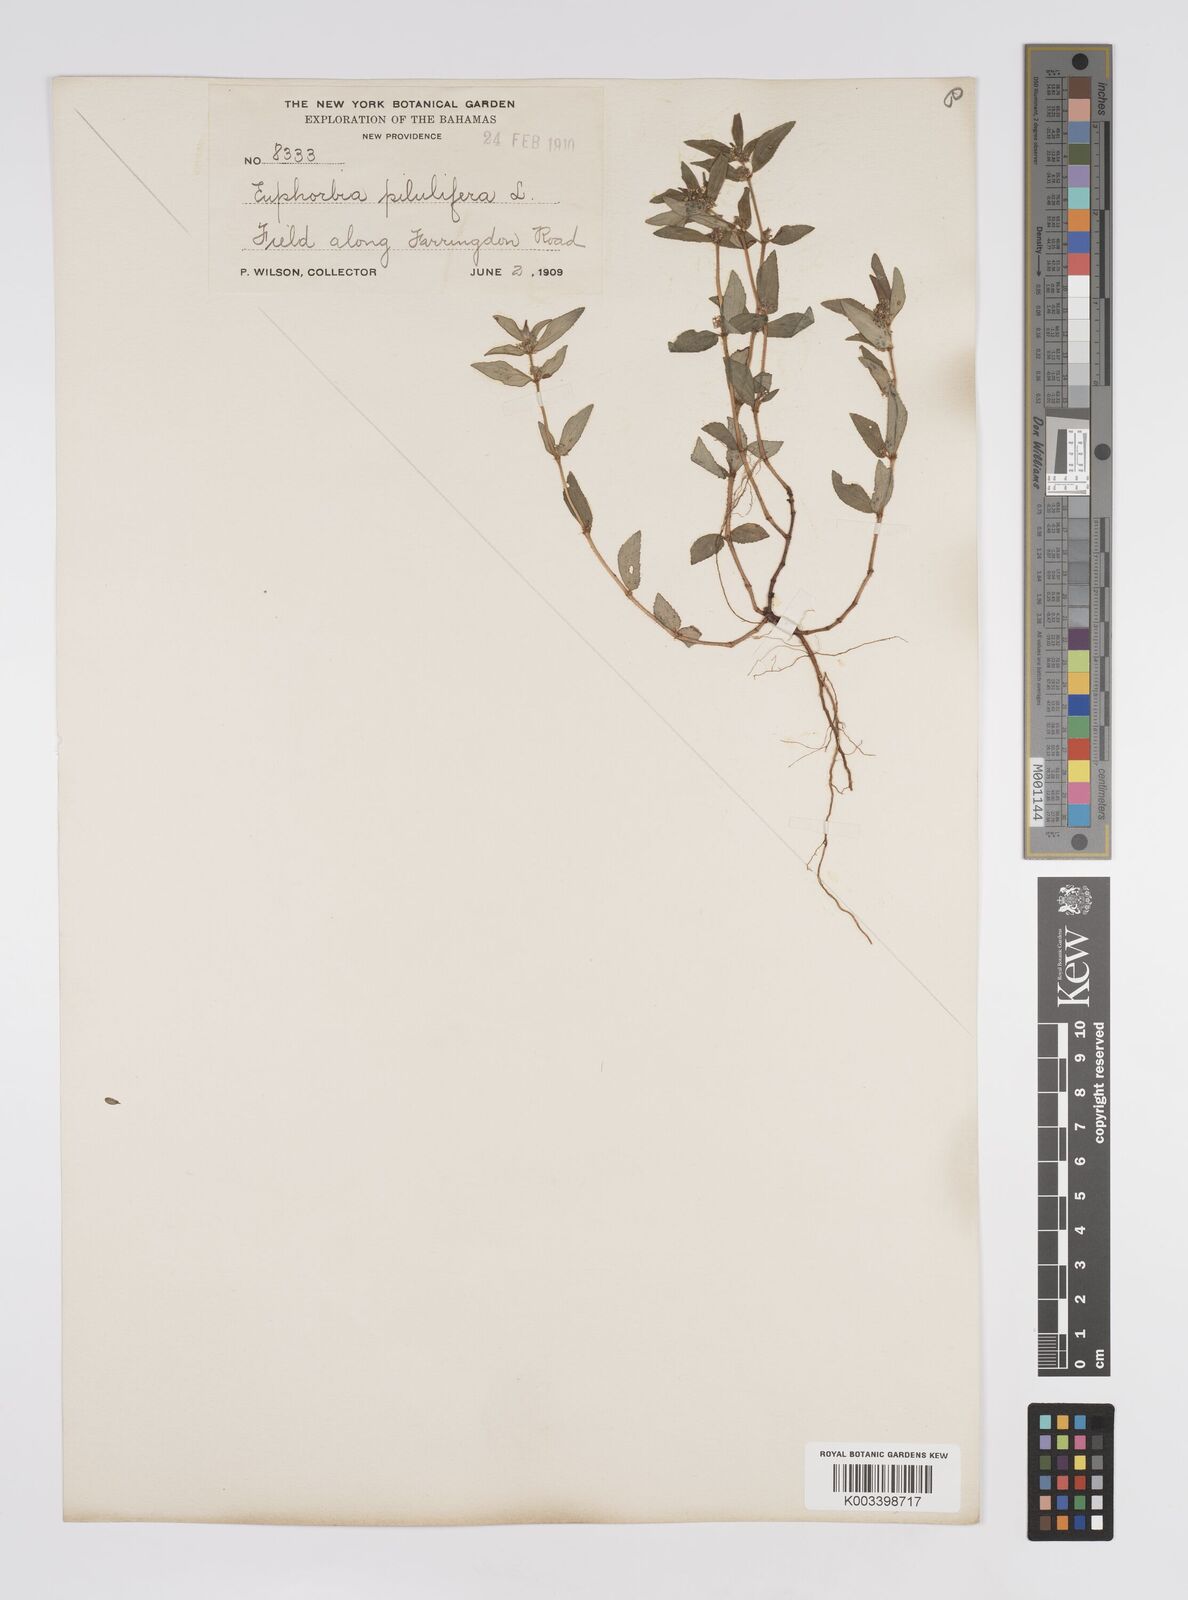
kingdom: Plantae
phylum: Tracheophyta
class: Magnoliopsida
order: Malpighiales
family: Euphorbiaceae
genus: Euphorbia
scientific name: Euphorbia hirta
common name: Pillpod sandmat
